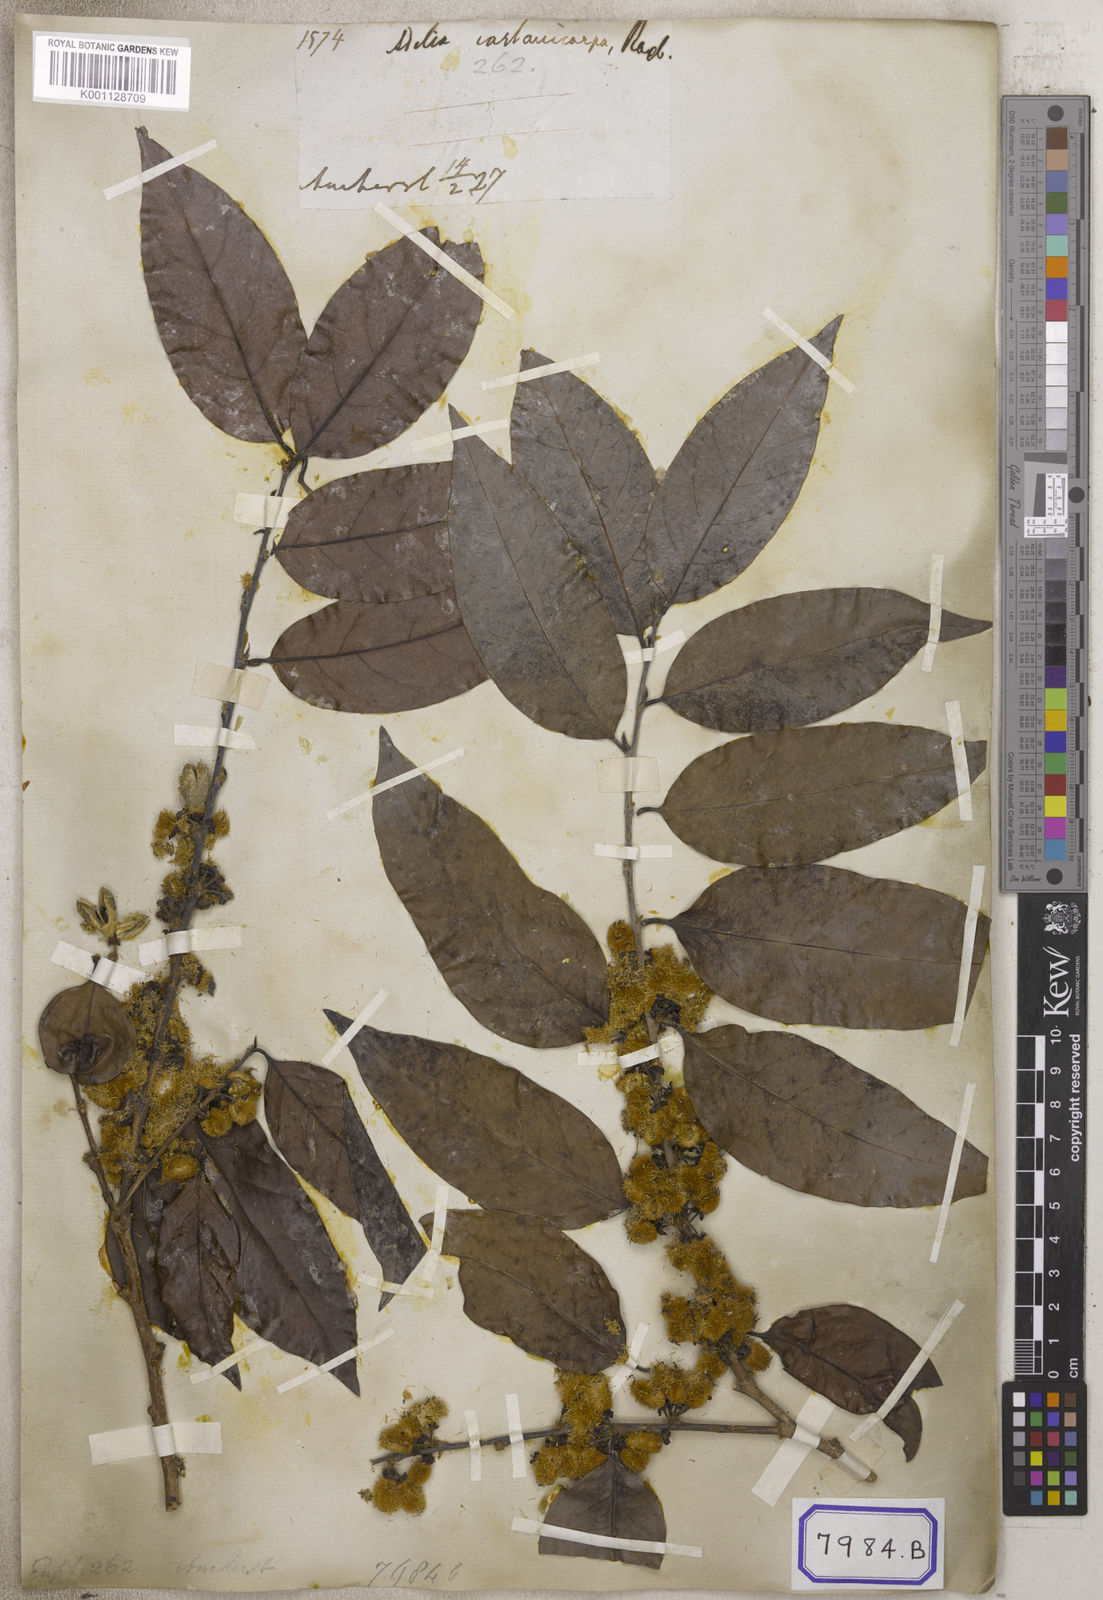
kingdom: Plantae
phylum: Tracheophyta
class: Magnoliopsida
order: Malpighiales
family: Euphorbiaceae
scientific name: Euphorbiaceae
